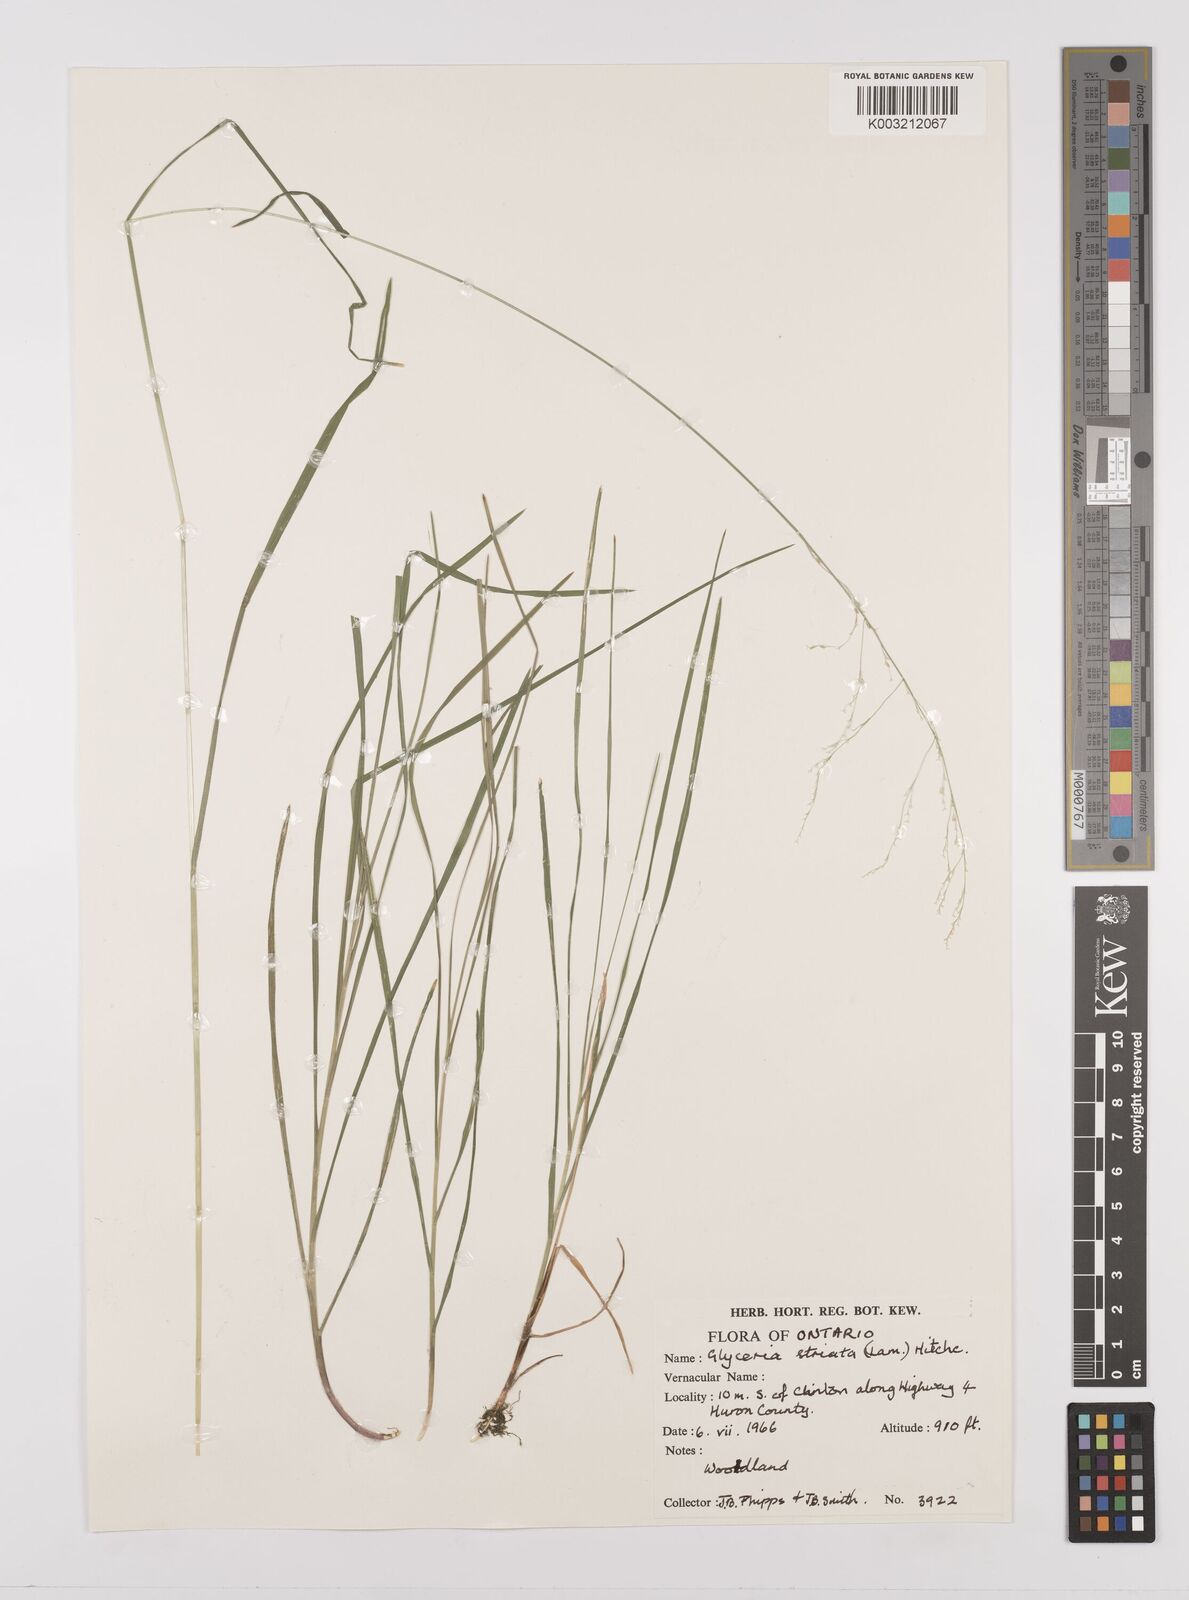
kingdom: Plantae
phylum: Tracheophyta
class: Liliopsida
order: Poales
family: Poaceae
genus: Glyceria
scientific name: Glyceria striata
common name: Fowl manna grass
